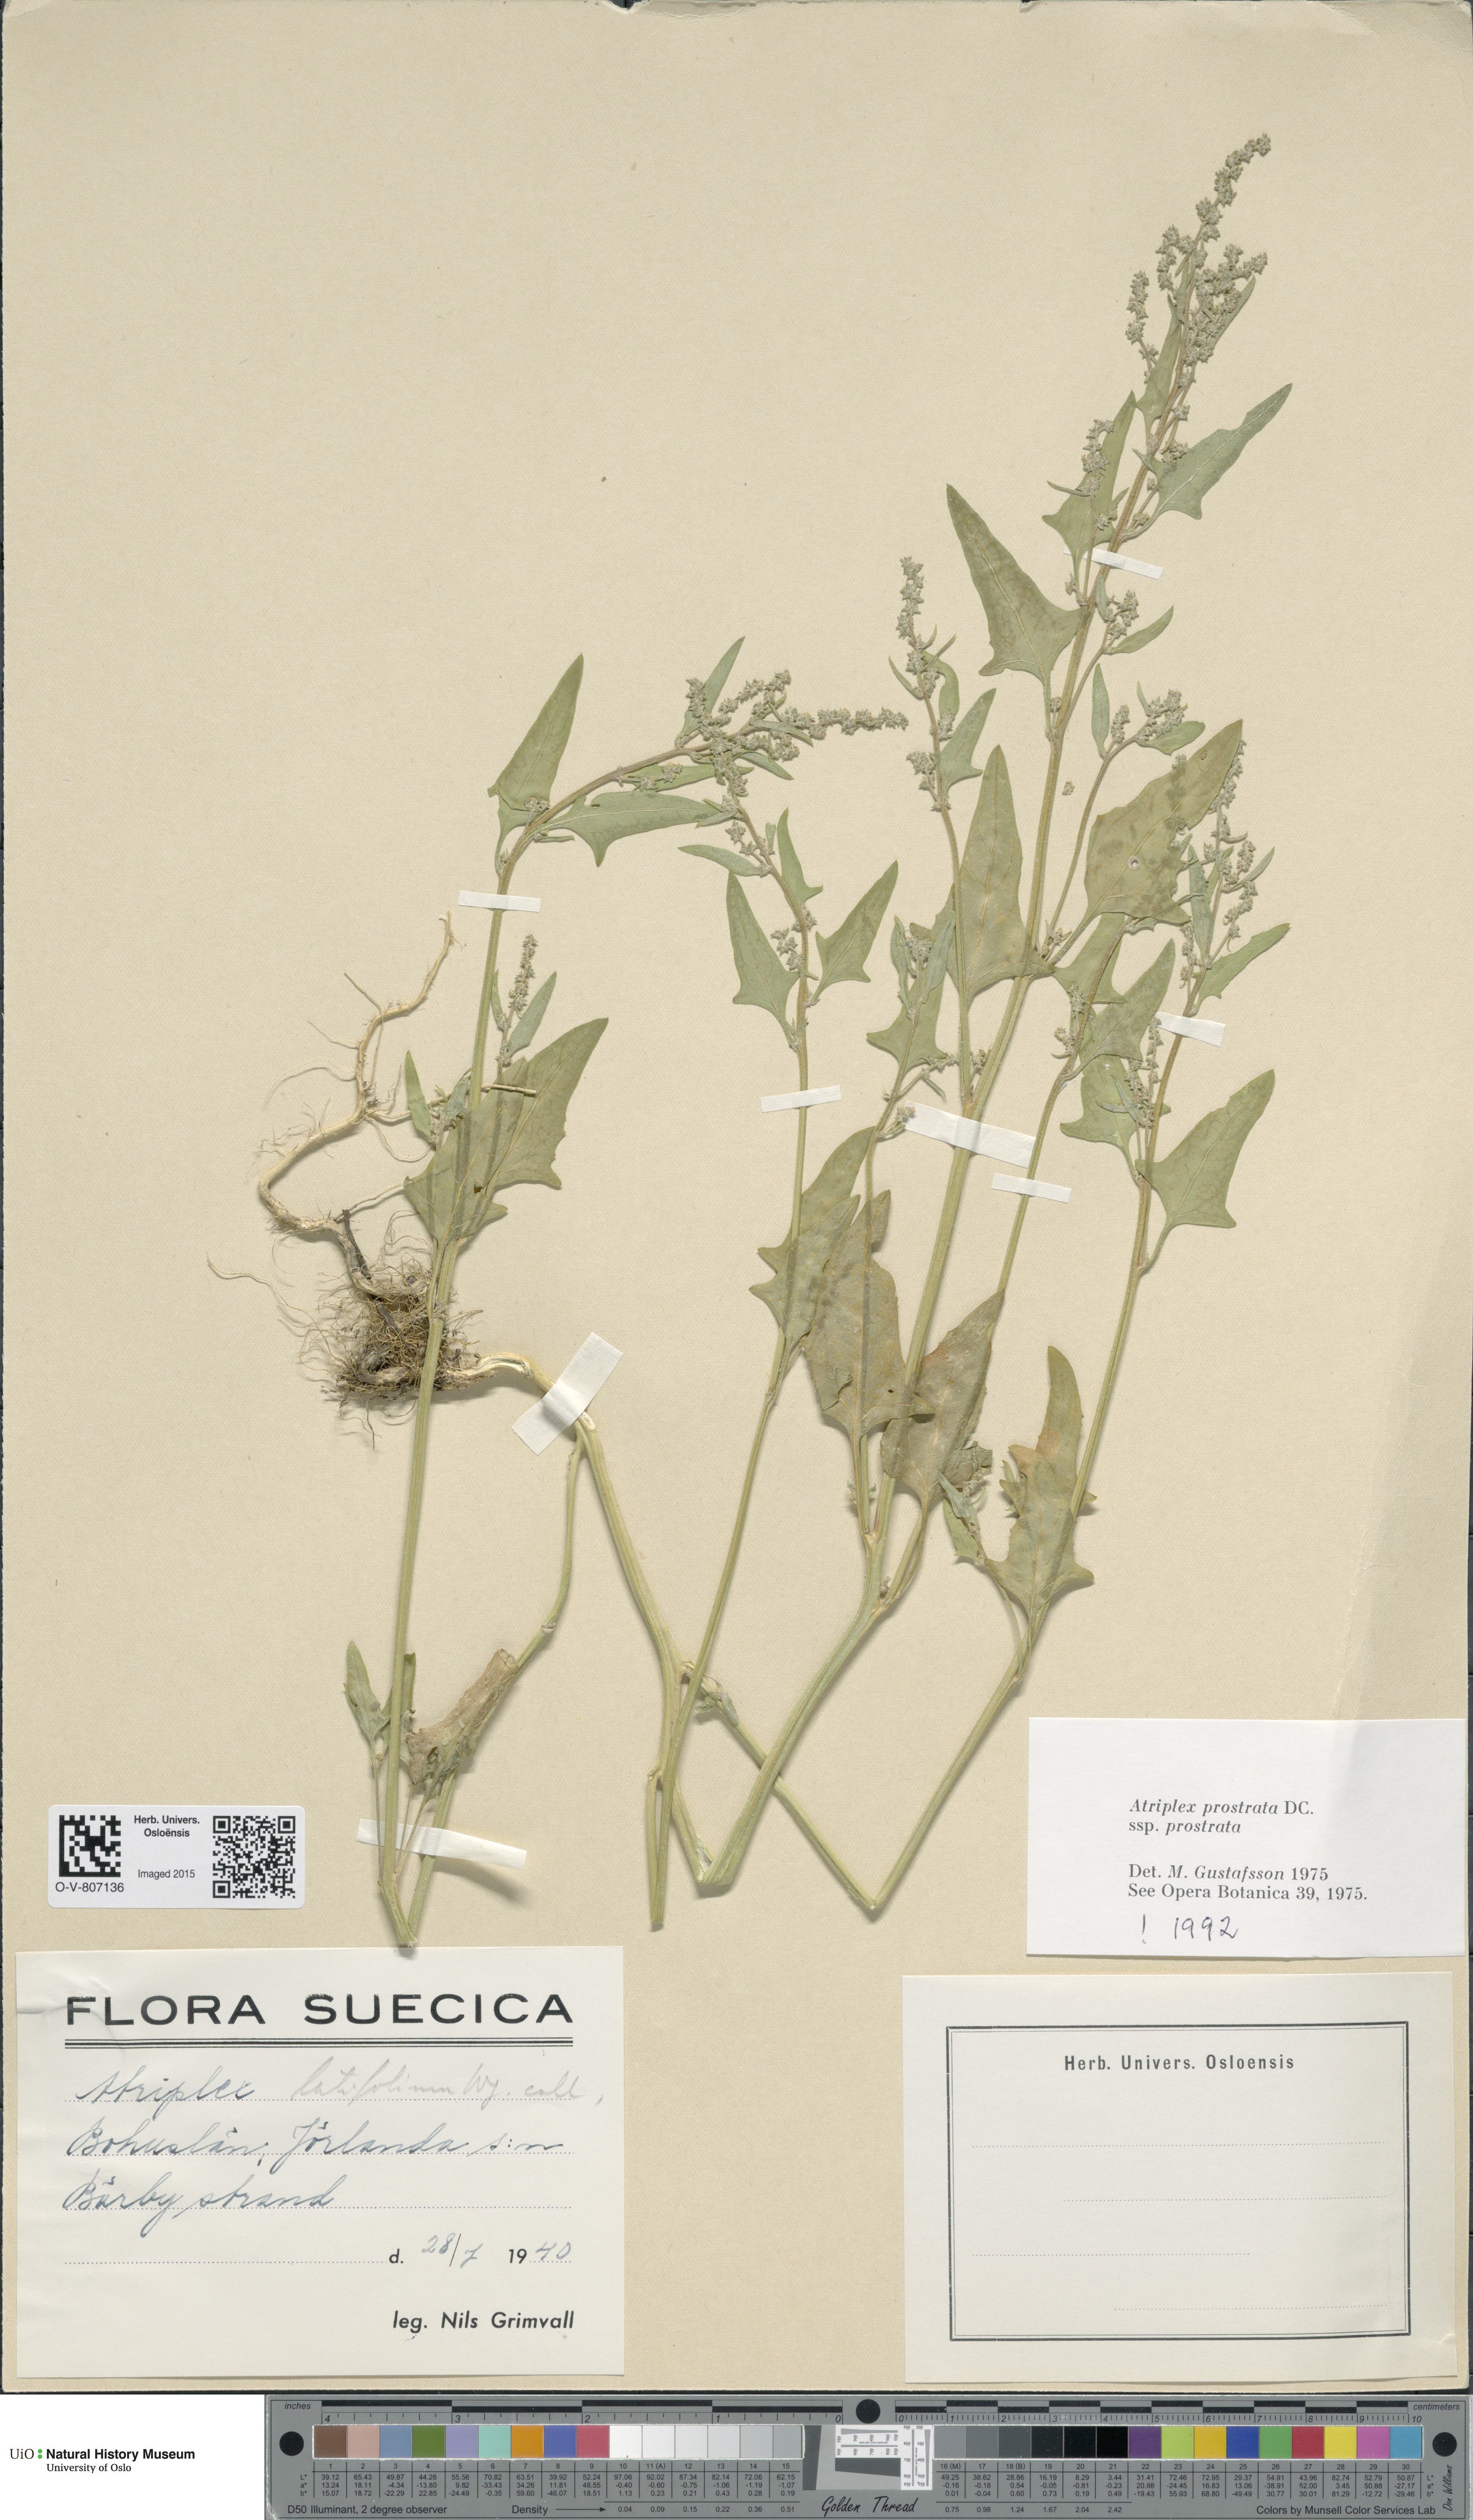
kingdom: Plantae
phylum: Tracheophyta
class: Magnoliopsida
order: Caryophyllales
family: Amaranthaceae
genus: Atriplex
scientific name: Atriplex prostrata
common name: Spear-leaved orache
